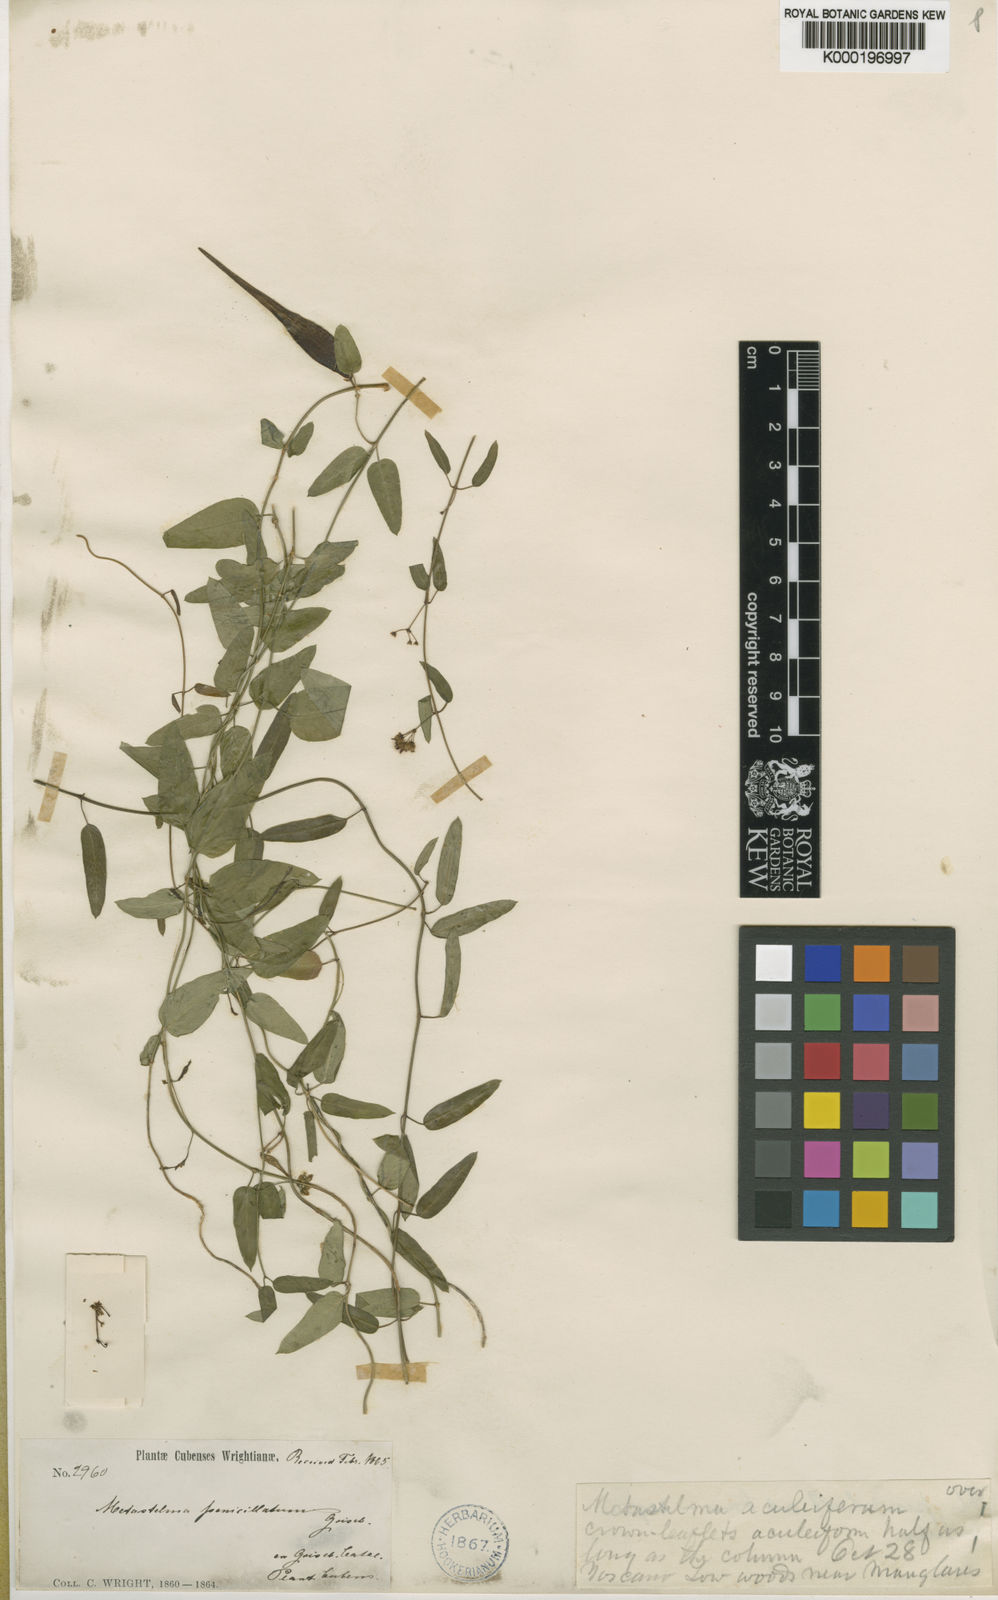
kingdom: Plantae
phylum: Tracheophyta
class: Magnoliopsida
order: Gentianales
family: Apocynaceae
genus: Metastelma
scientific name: Metastelma penicillatum
